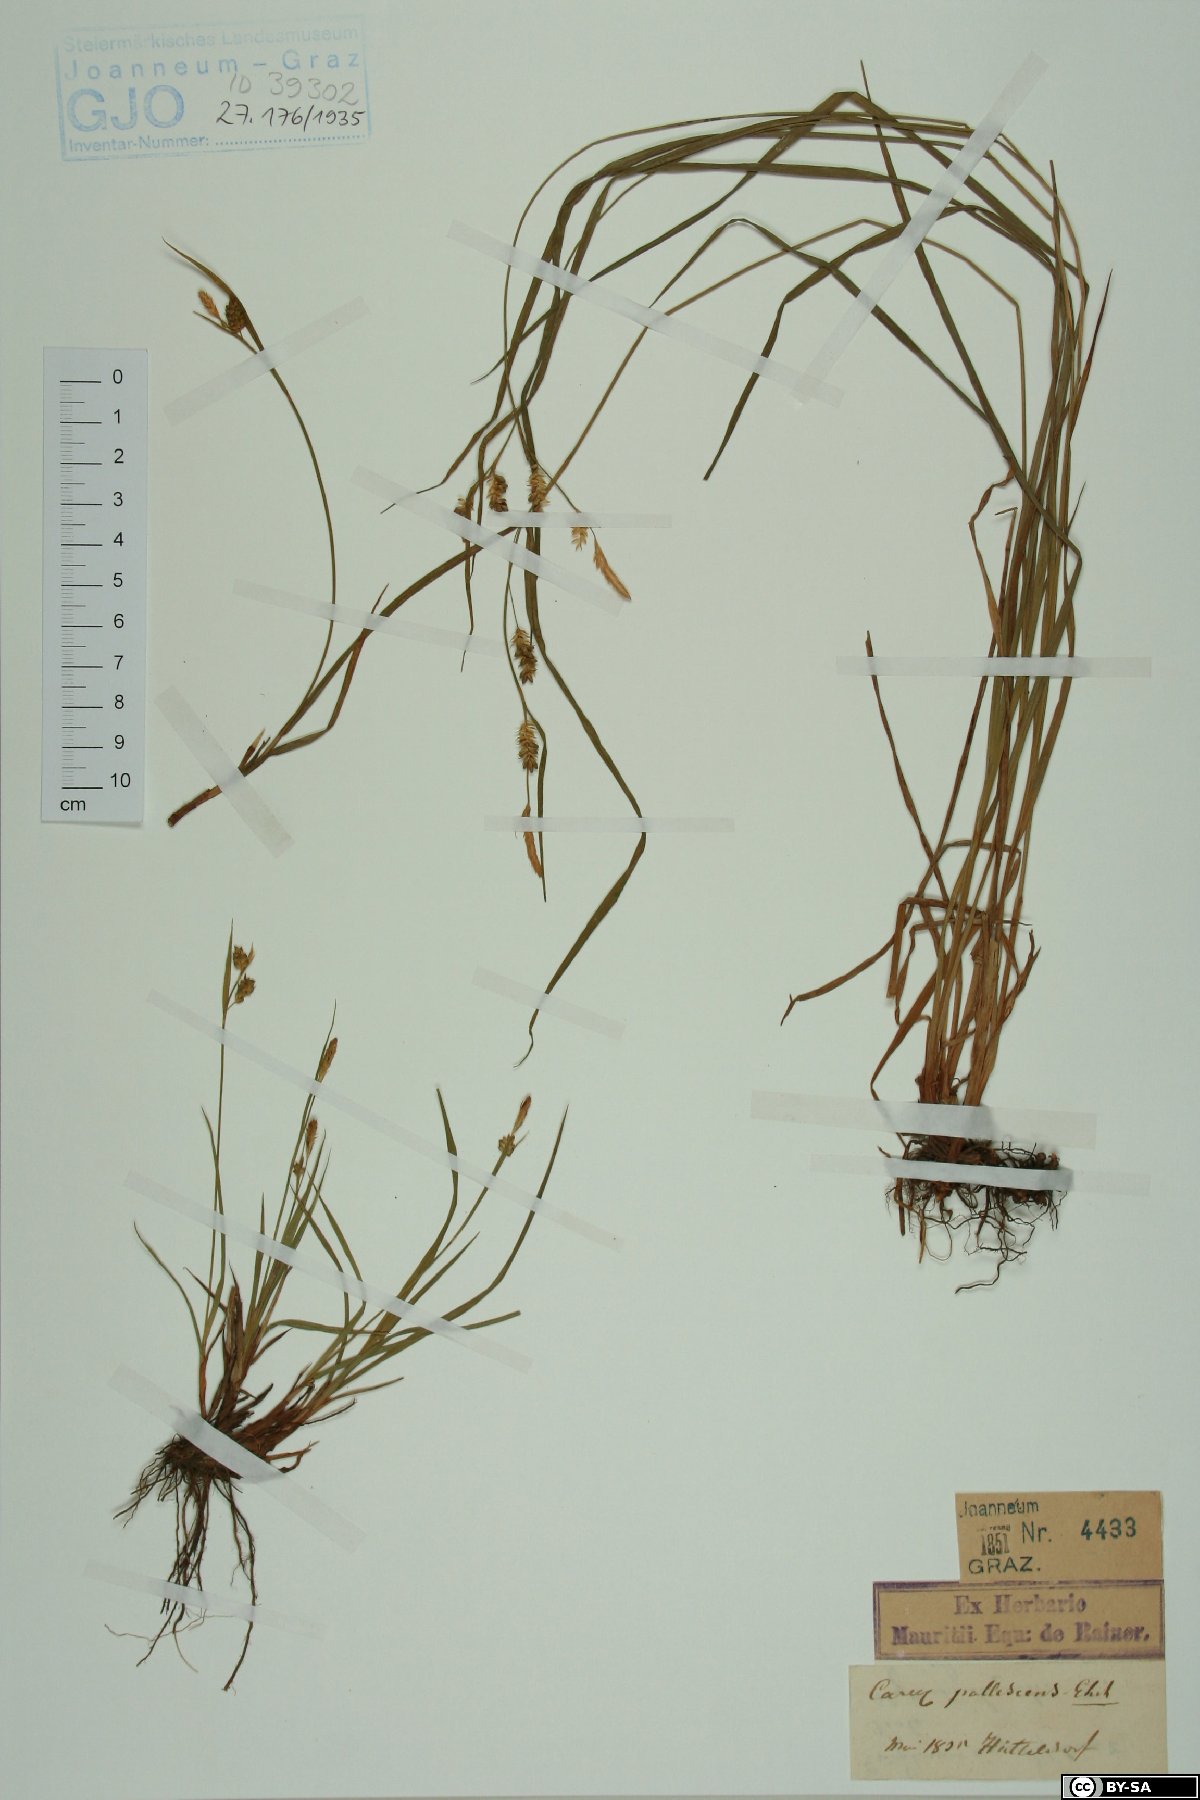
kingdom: Plantae
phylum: Tracheophyta
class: Liliopsida
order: Poales
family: Cyperaceae
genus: Carex
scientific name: Carex pallescens
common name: Pale sedge
